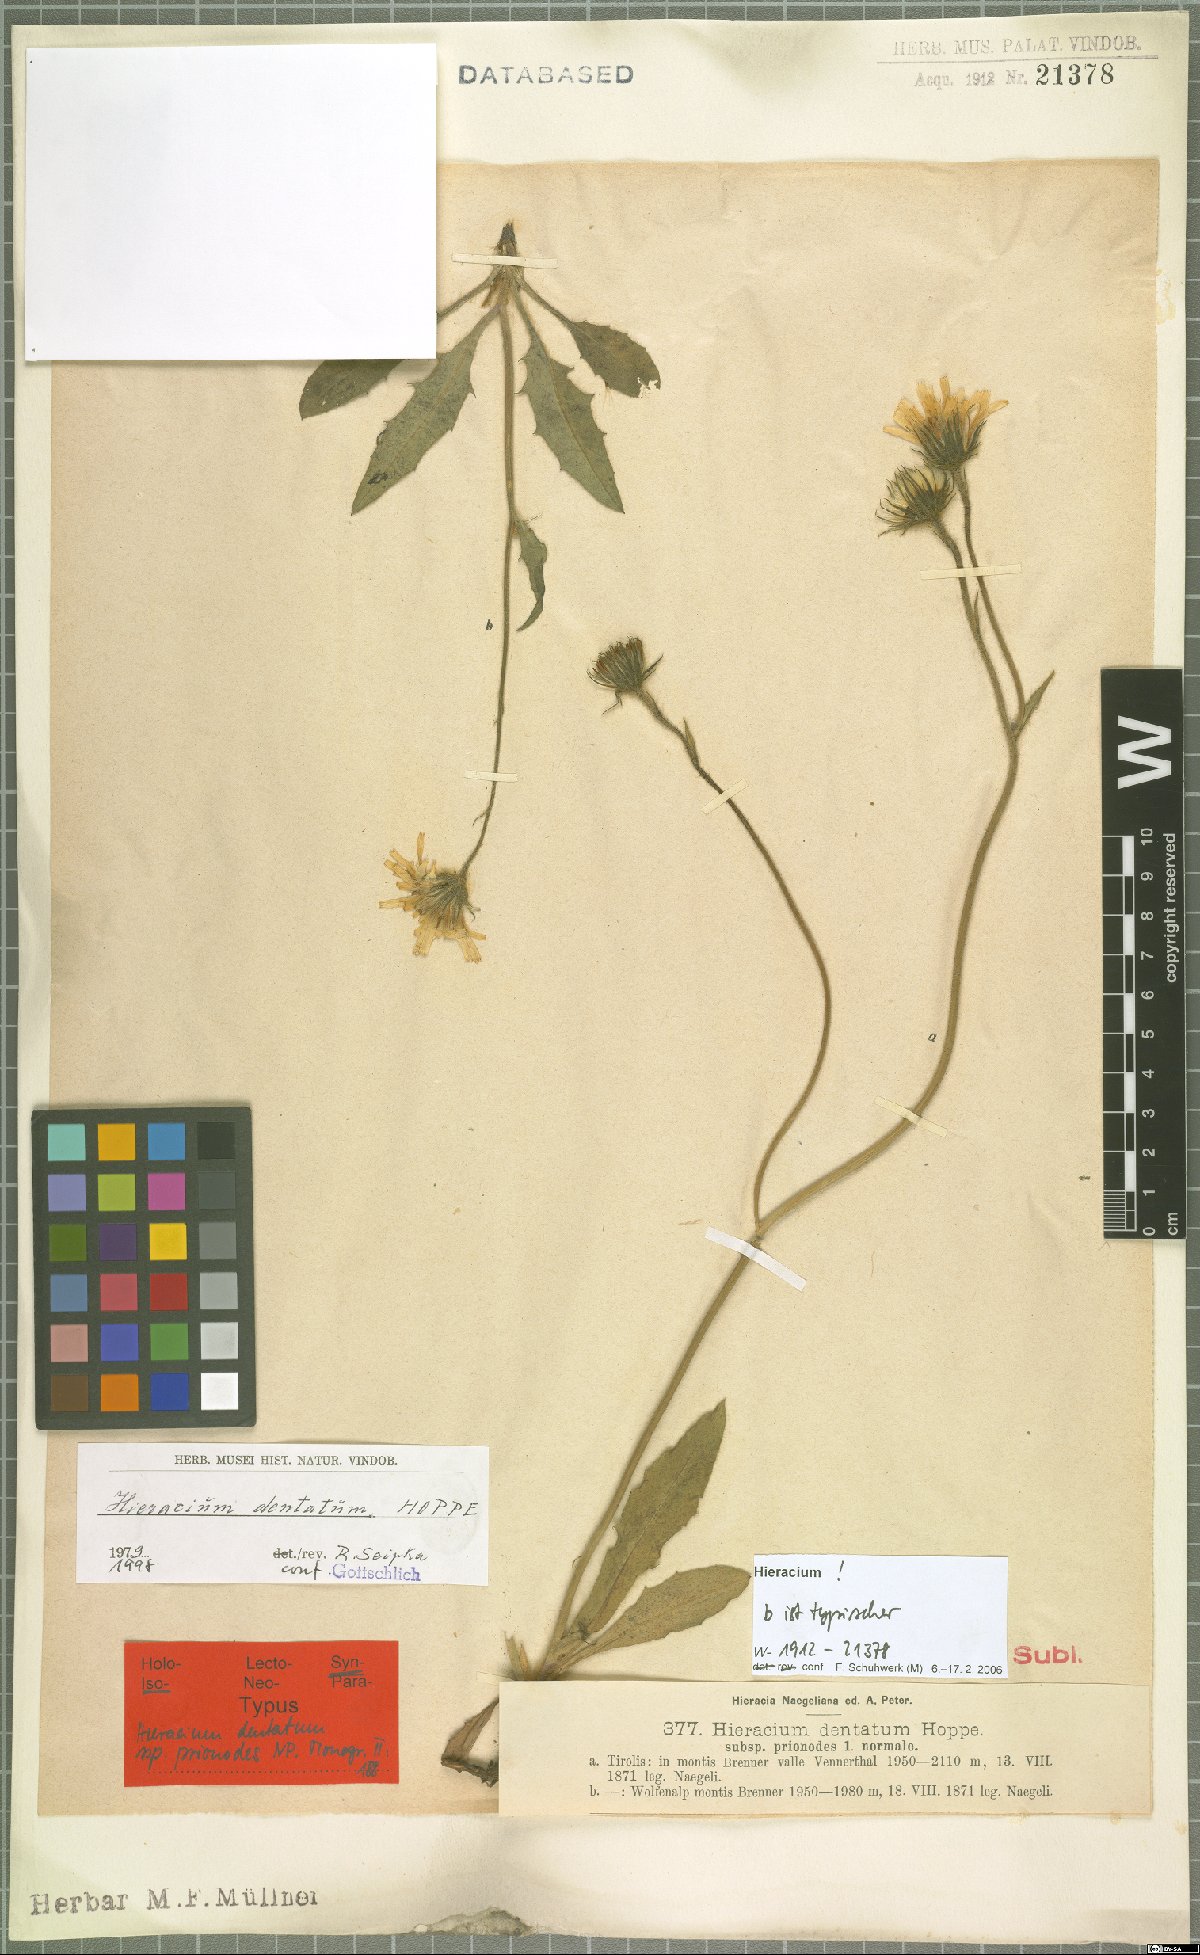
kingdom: Plantae
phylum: Tracheophyta
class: Magnoliopsida
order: Asterales
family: Asteraceae
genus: Hieracium
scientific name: Hieracium dentatum
